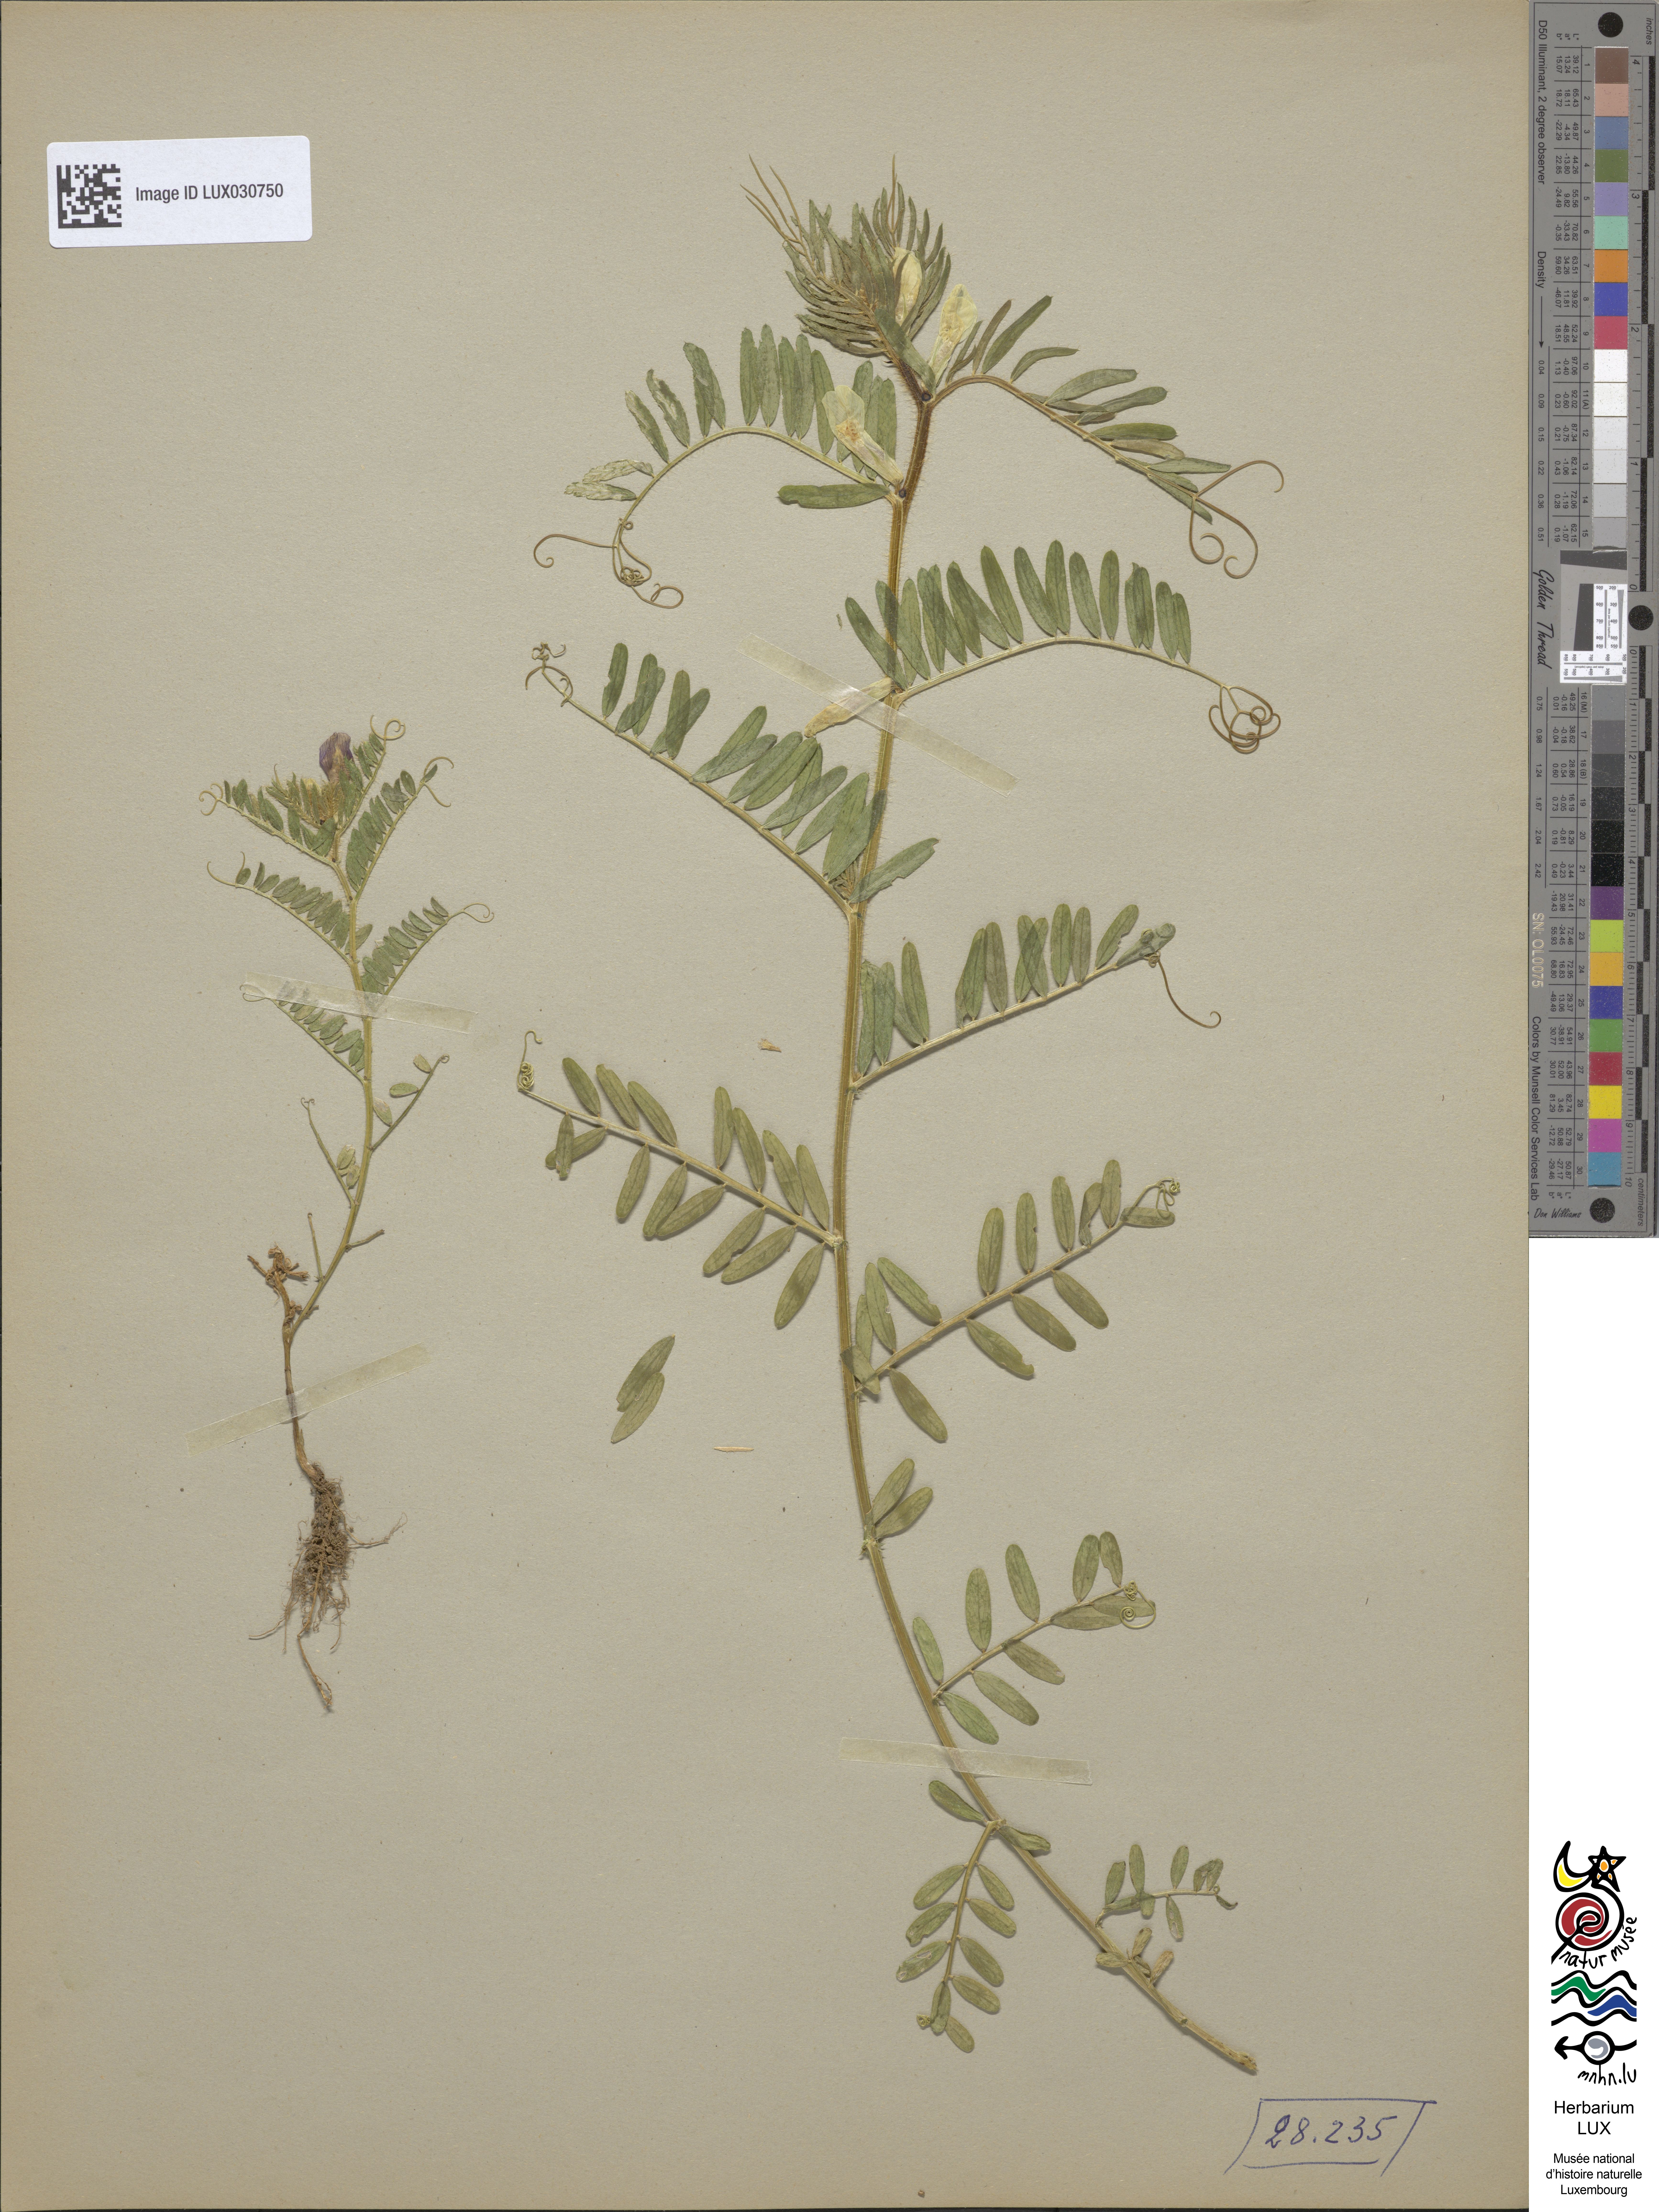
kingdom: Plantae
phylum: Tracheophyta
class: Magnoliopsida
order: Fabales
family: Fabaceae
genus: Vicia
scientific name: Vicia lutea
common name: Smooth yellow vetch
